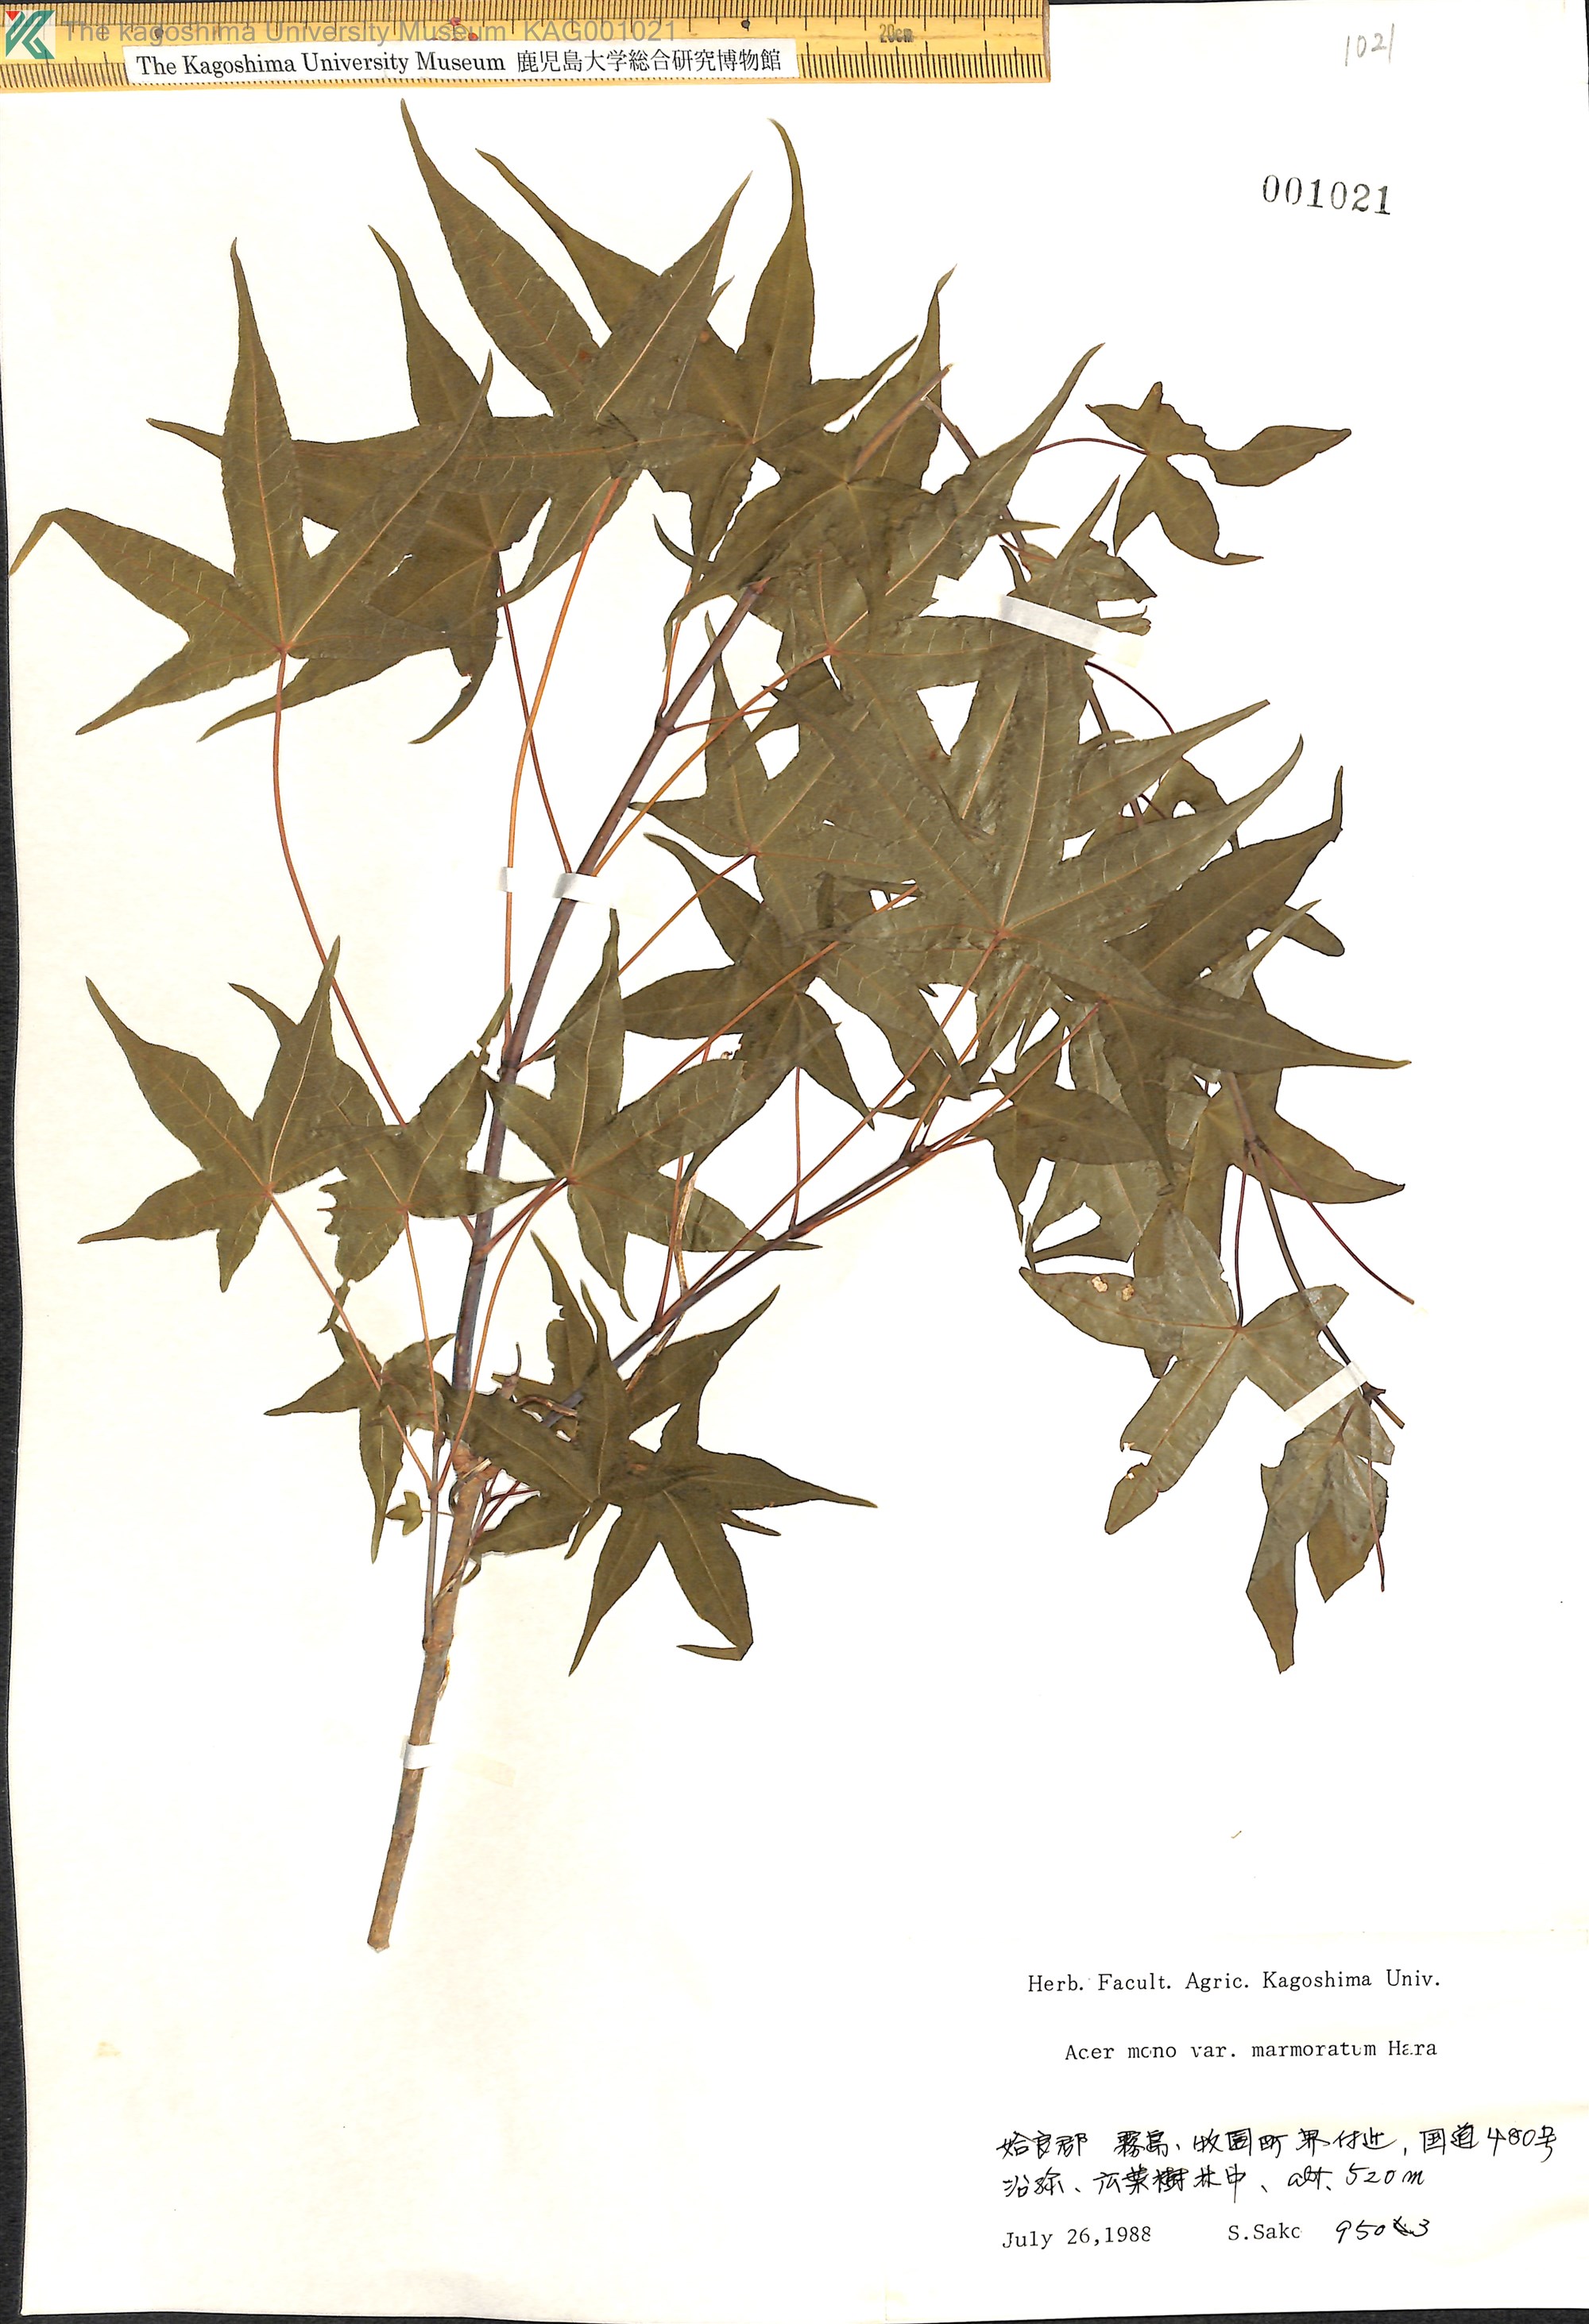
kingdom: Plantae
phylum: Tracheophyta
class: Magnoliopsida
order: Sapindales
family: Sapindaceae
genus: Acer
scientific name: Acer pictum
